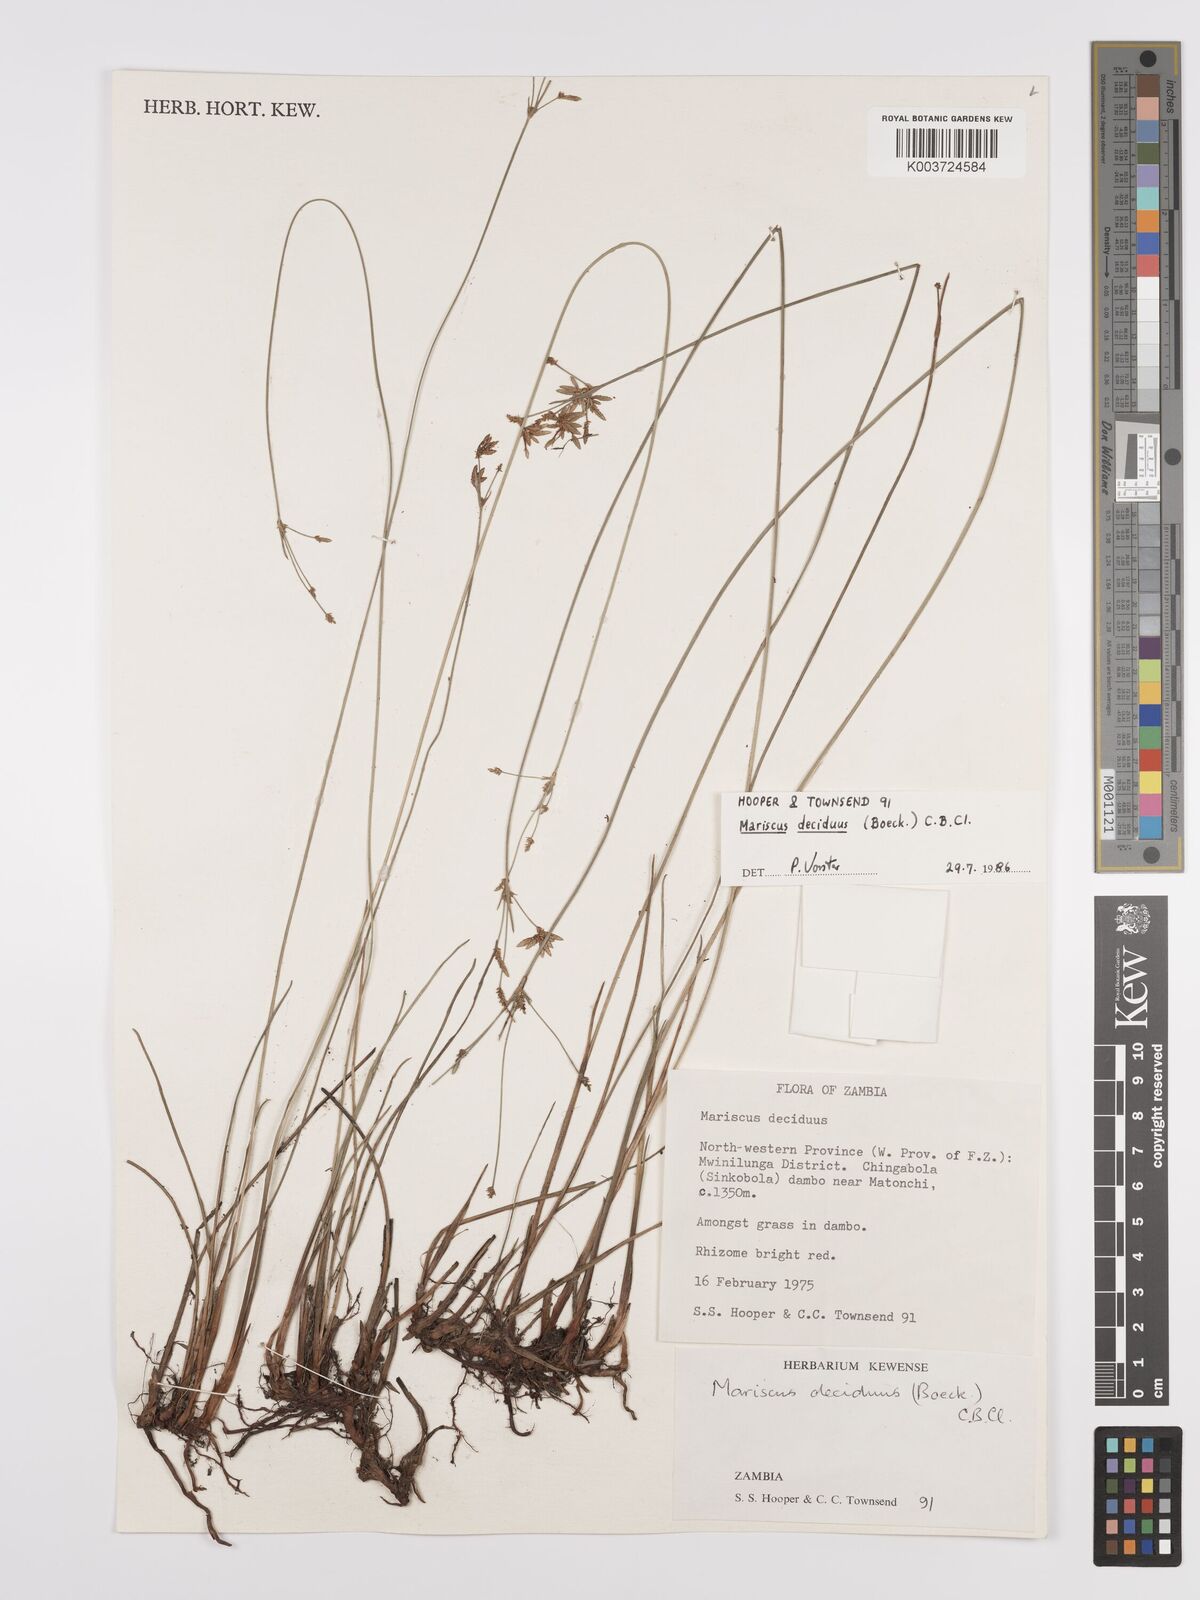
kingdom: Plantae
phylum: Tracheophyta
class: Liliopsida
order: Poales
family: Cyperaceae
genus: Cyperus
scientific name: Cyperus deciduus
